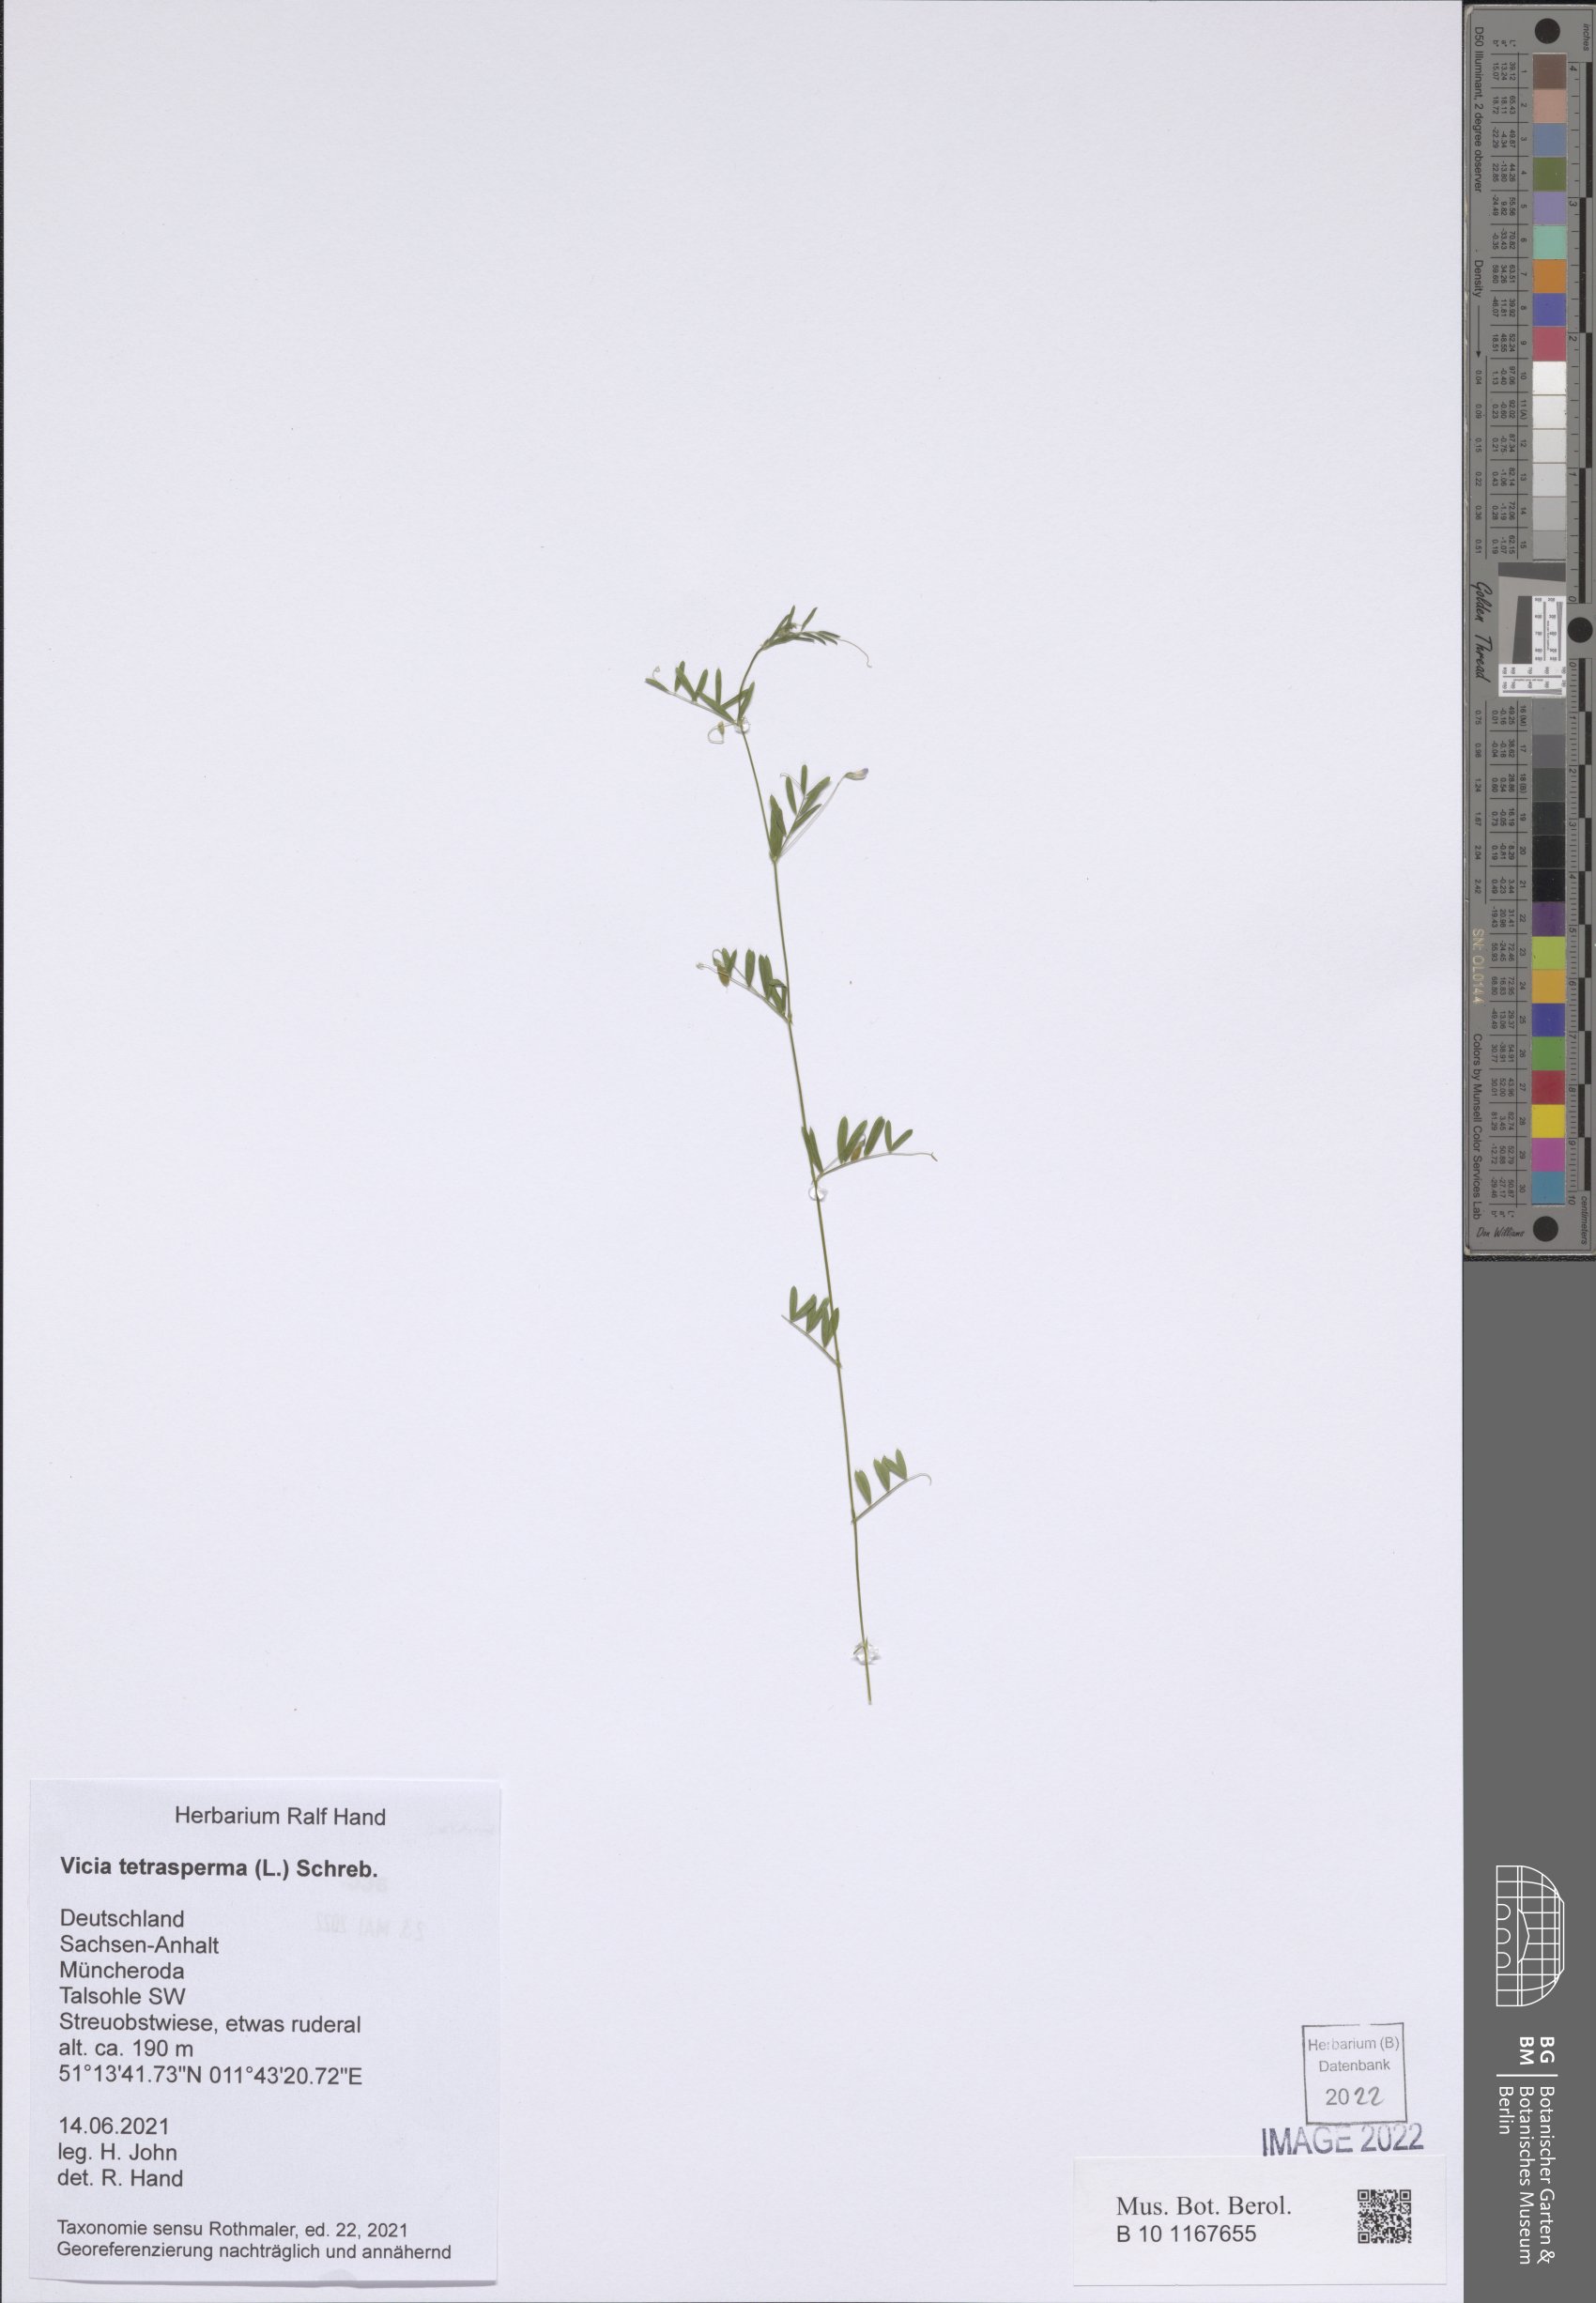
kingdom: Plantae
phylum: Tracheophyta
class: Magnoliopsida
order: Fabales
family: Fabaceae
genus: Vicia
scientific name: Vicia tetrasperma
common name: Smooth tare
